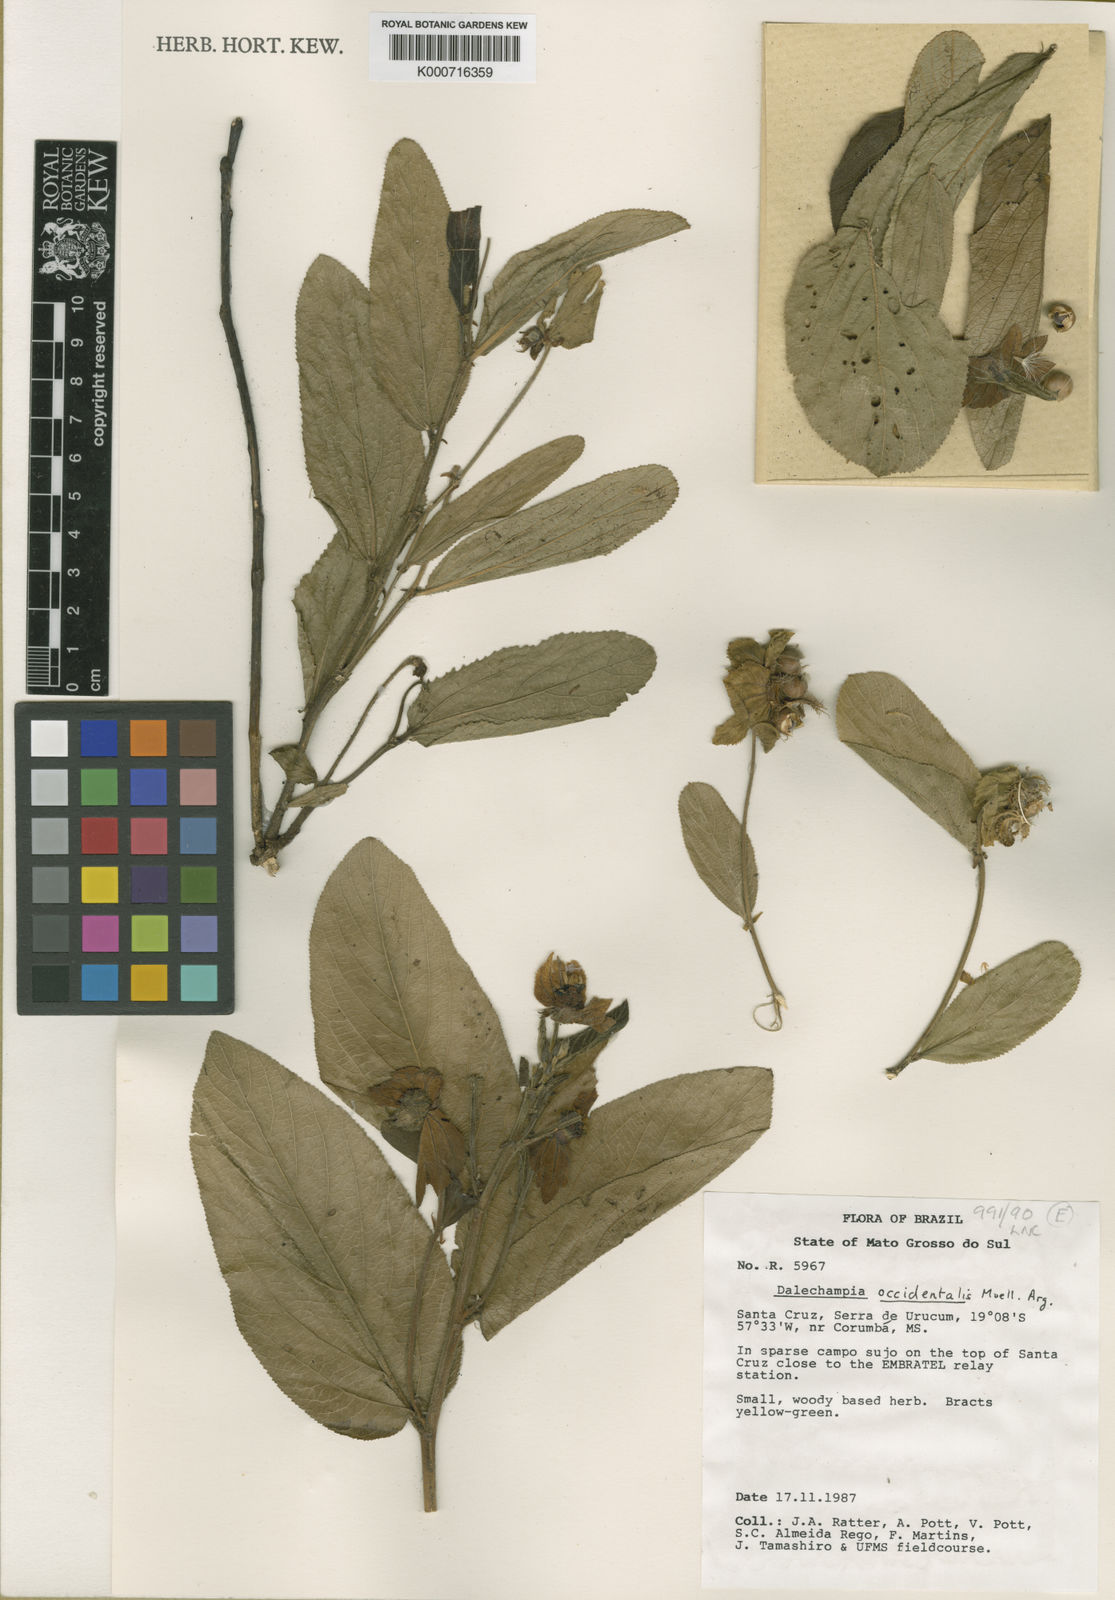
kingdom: Plantae
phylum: Tracheophyta
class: Magnoliopsida
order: Malpighiales
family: Euphorbiaceae
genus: Dalechampia
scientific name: Dalechampia
